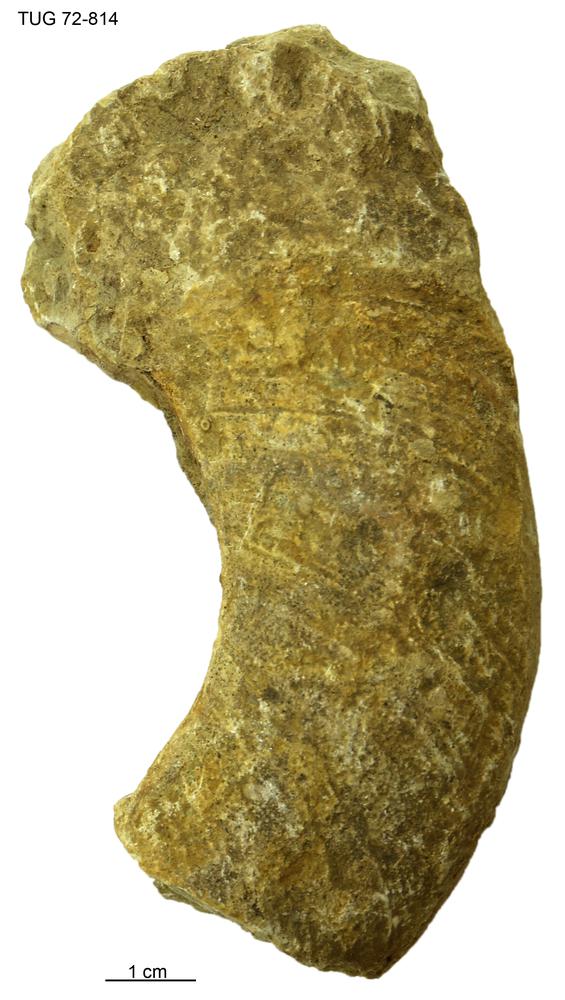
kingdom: Animalia
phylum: Mollusca
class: Cephalopoda
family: Trocholitidae
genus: Discoceras
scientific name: Discoceras
